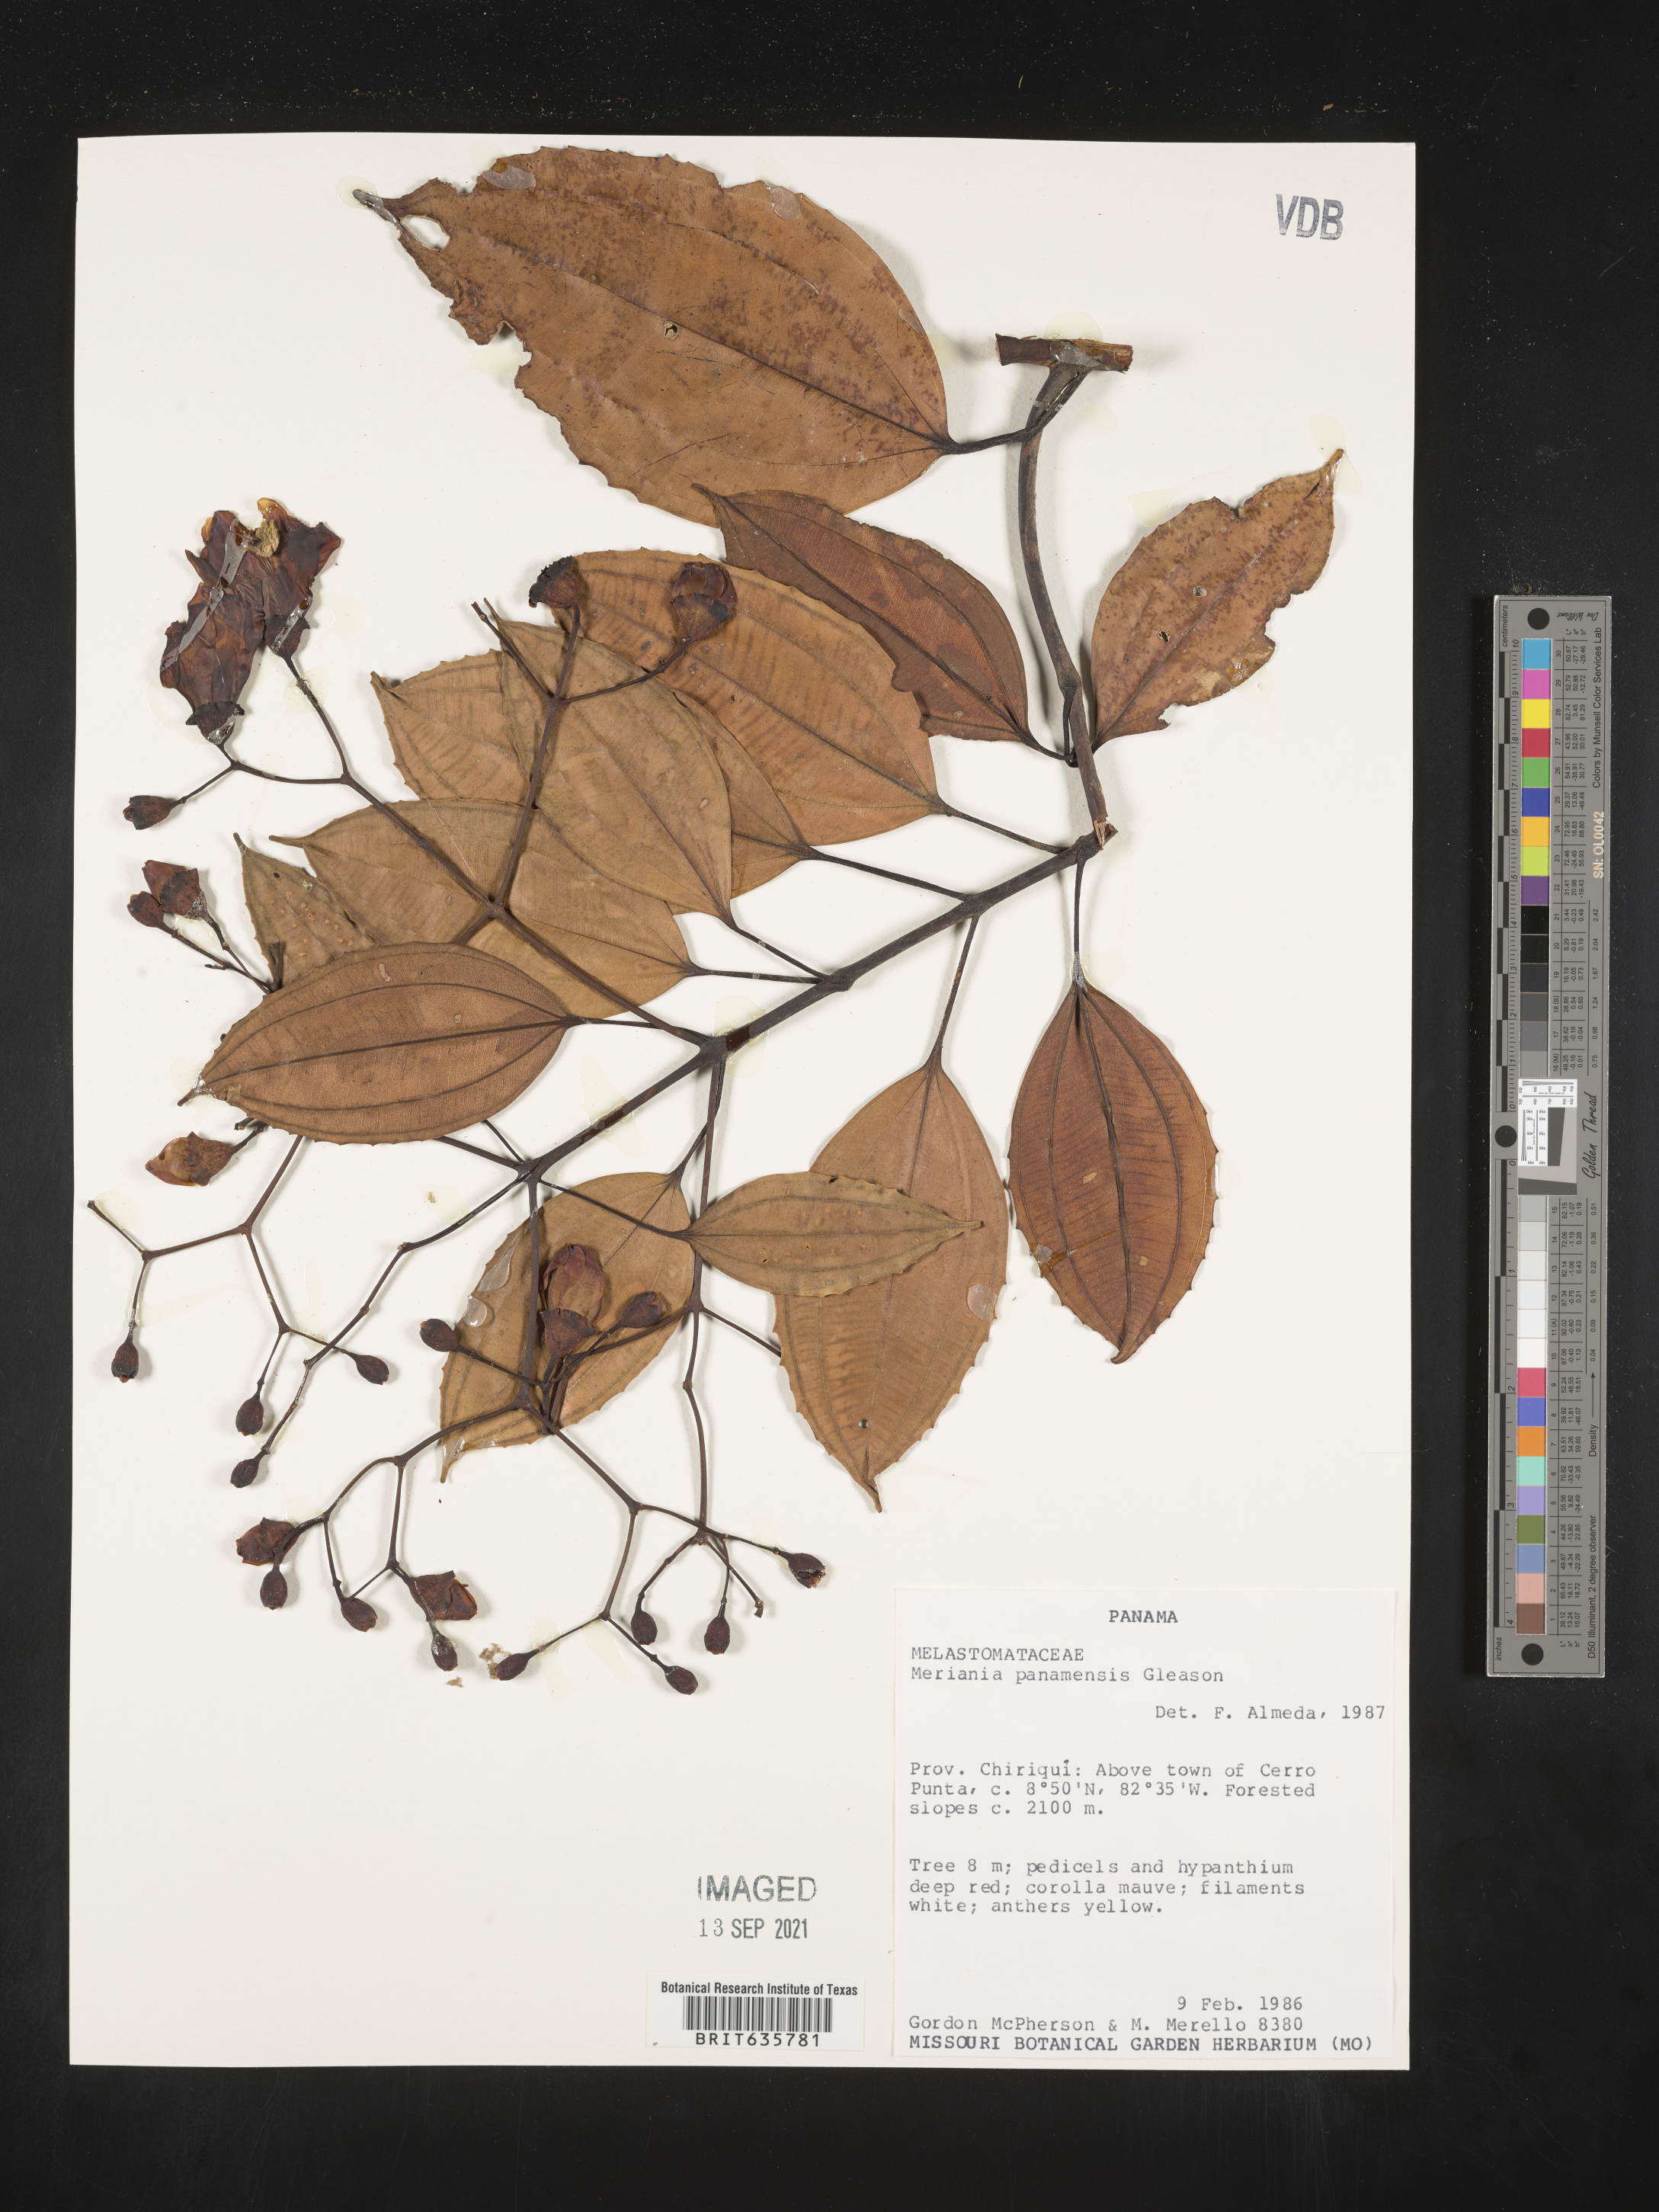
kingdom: Plantae
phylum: Tracheophyta
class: Magnoliopsida
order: Myrtales
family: Melastomataceae
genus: Meriania
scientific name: Meriania
